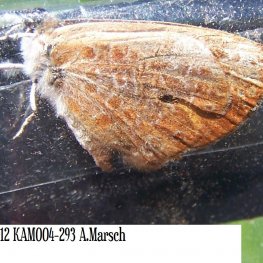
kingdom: Animalia
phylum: Arthropoda
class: Insecta
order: Lepidoptera
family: Lycaenidae
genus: Feniseca
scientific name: Feniseca tarquinius
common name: Harvester
